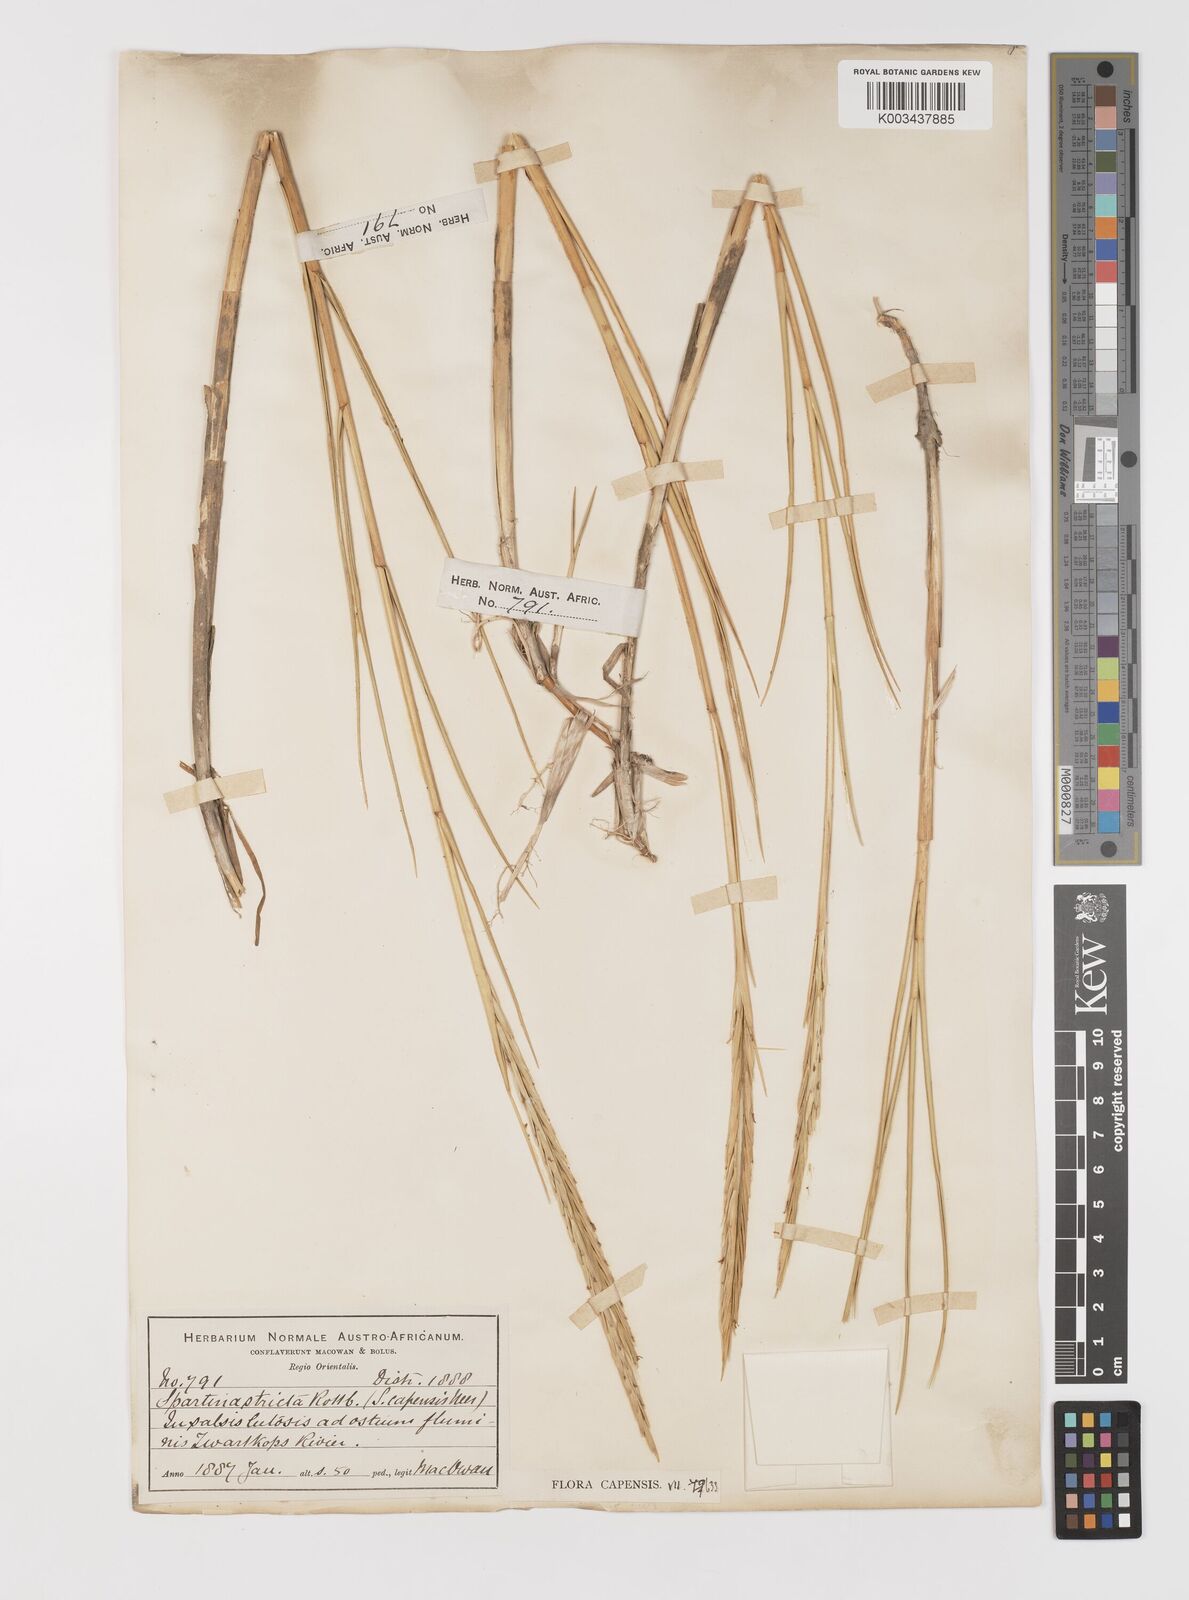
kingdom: Plantae
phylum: Tracheophyta
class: Liliopsida
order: Poales
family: Poaceae
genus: Sporobolus
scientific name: Sporobolus maritimus
